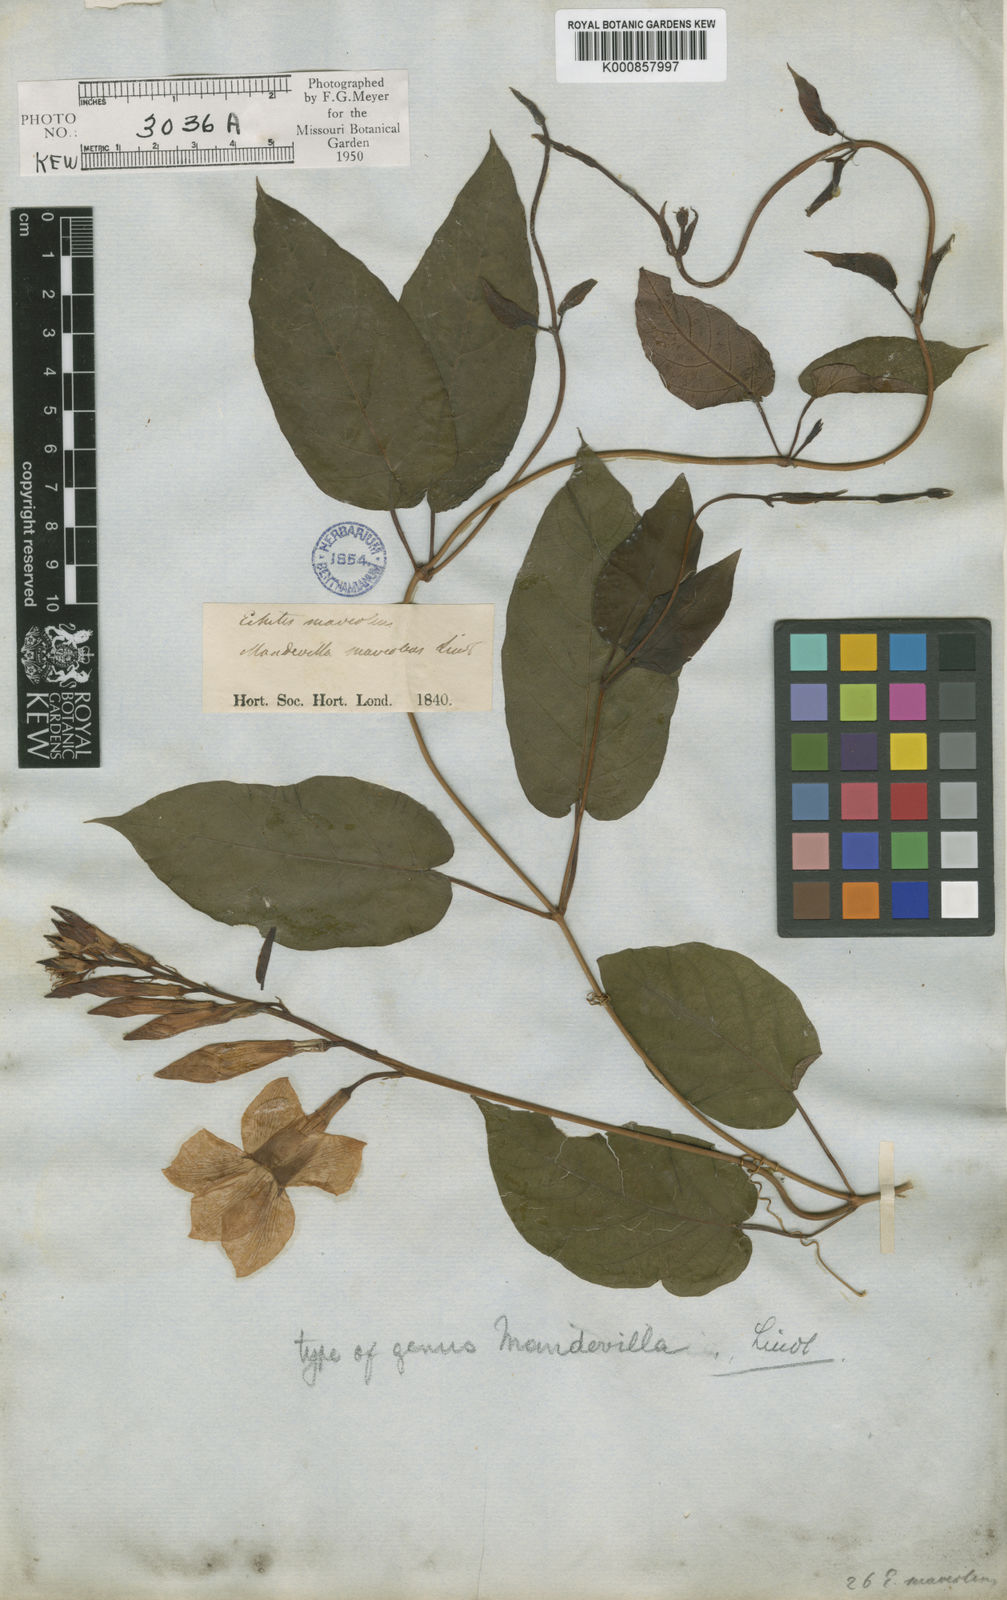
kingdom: Plantae
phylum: Tracheophyta
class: Magnoliopsida
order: Gentianales
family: Apocynaceae
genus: Mandevilla
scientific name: Mandevilla laxa
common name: Chilean-jasmine
